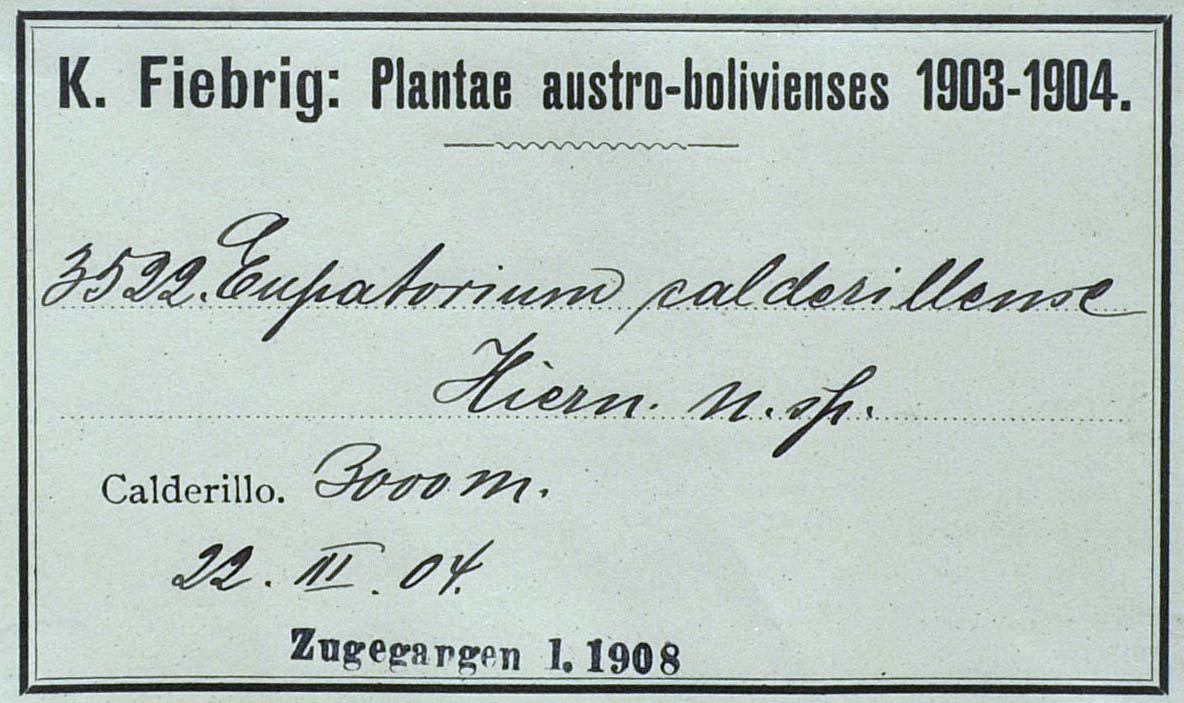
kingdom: Plantae
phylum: Tracheophyta
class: Magnoliopsida
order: Asterales
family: Asteraceae
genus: Ageratina
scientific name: Ageratina lorentzii
